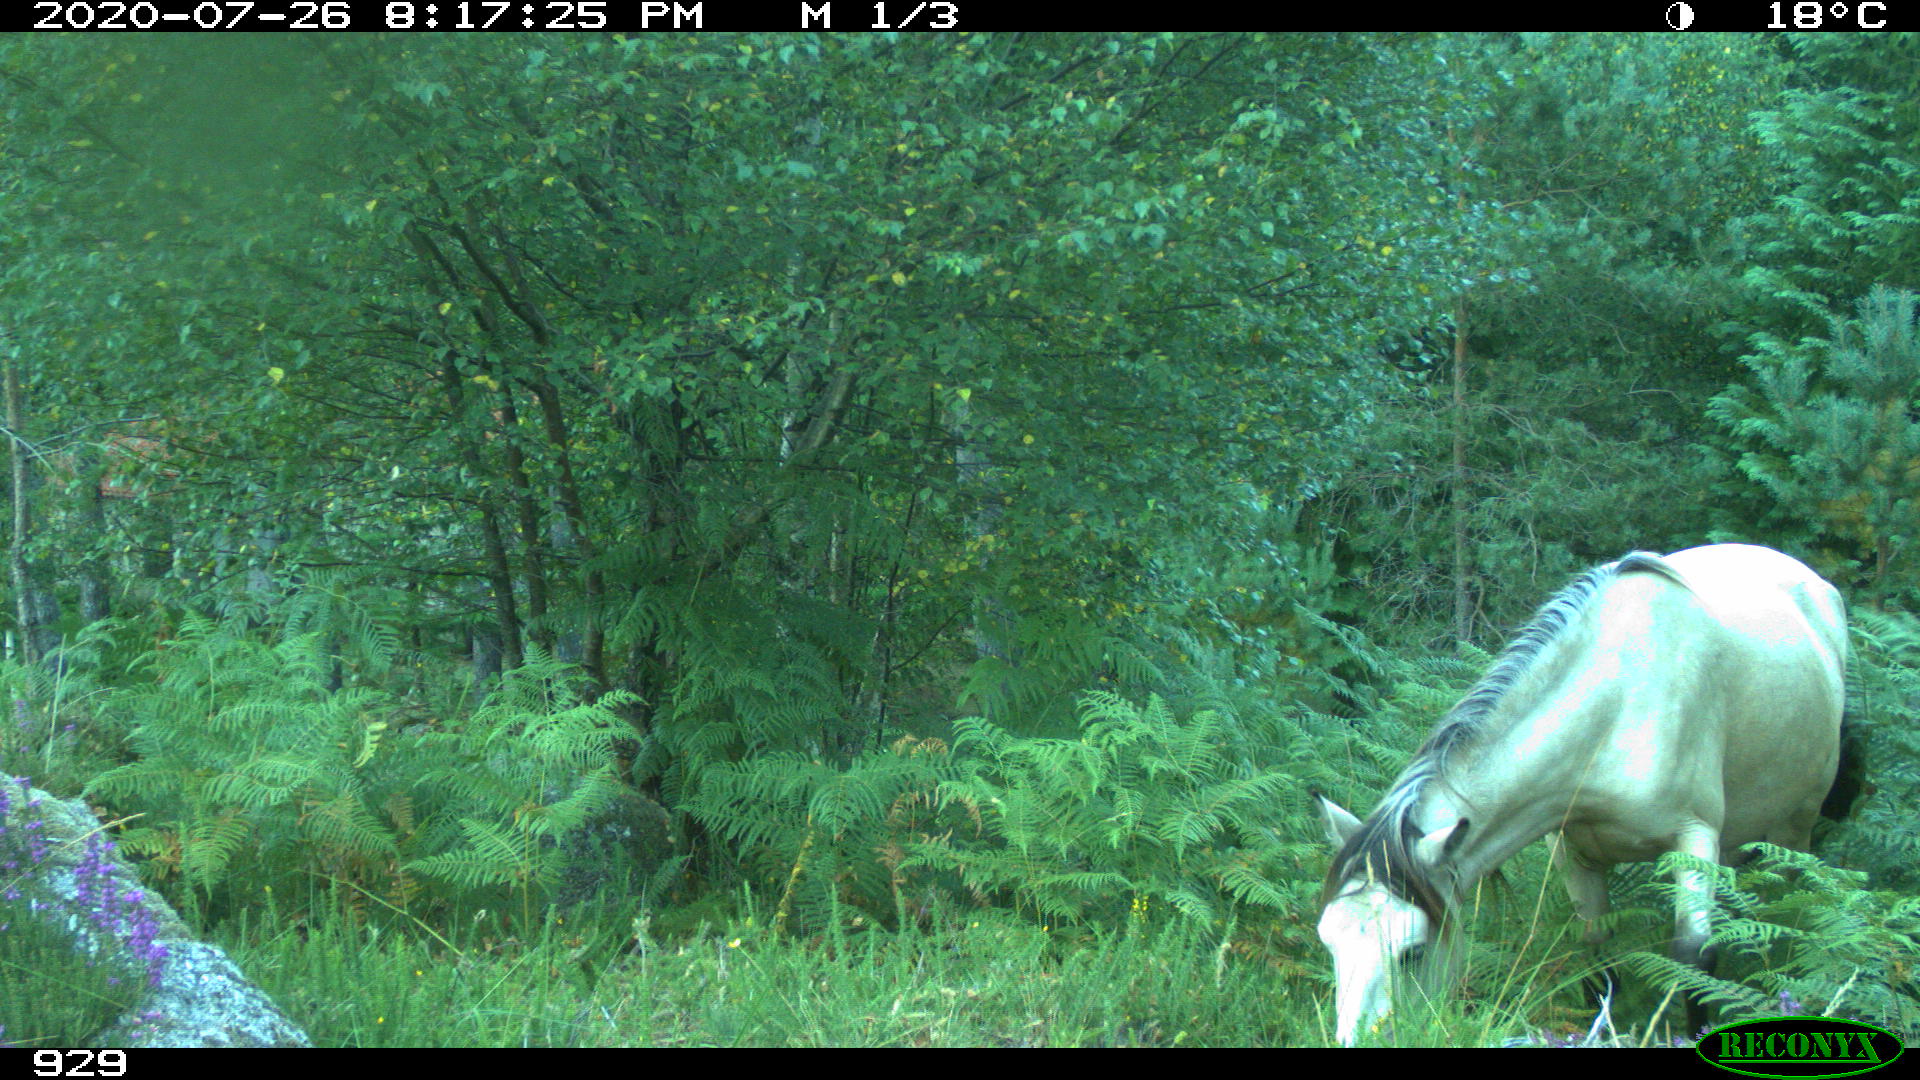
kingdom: Animalia
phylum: Chordata
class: Mammalia
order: Perissodactyla
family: Equidae
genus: Equus
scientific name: Equus caballus
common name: Horse
